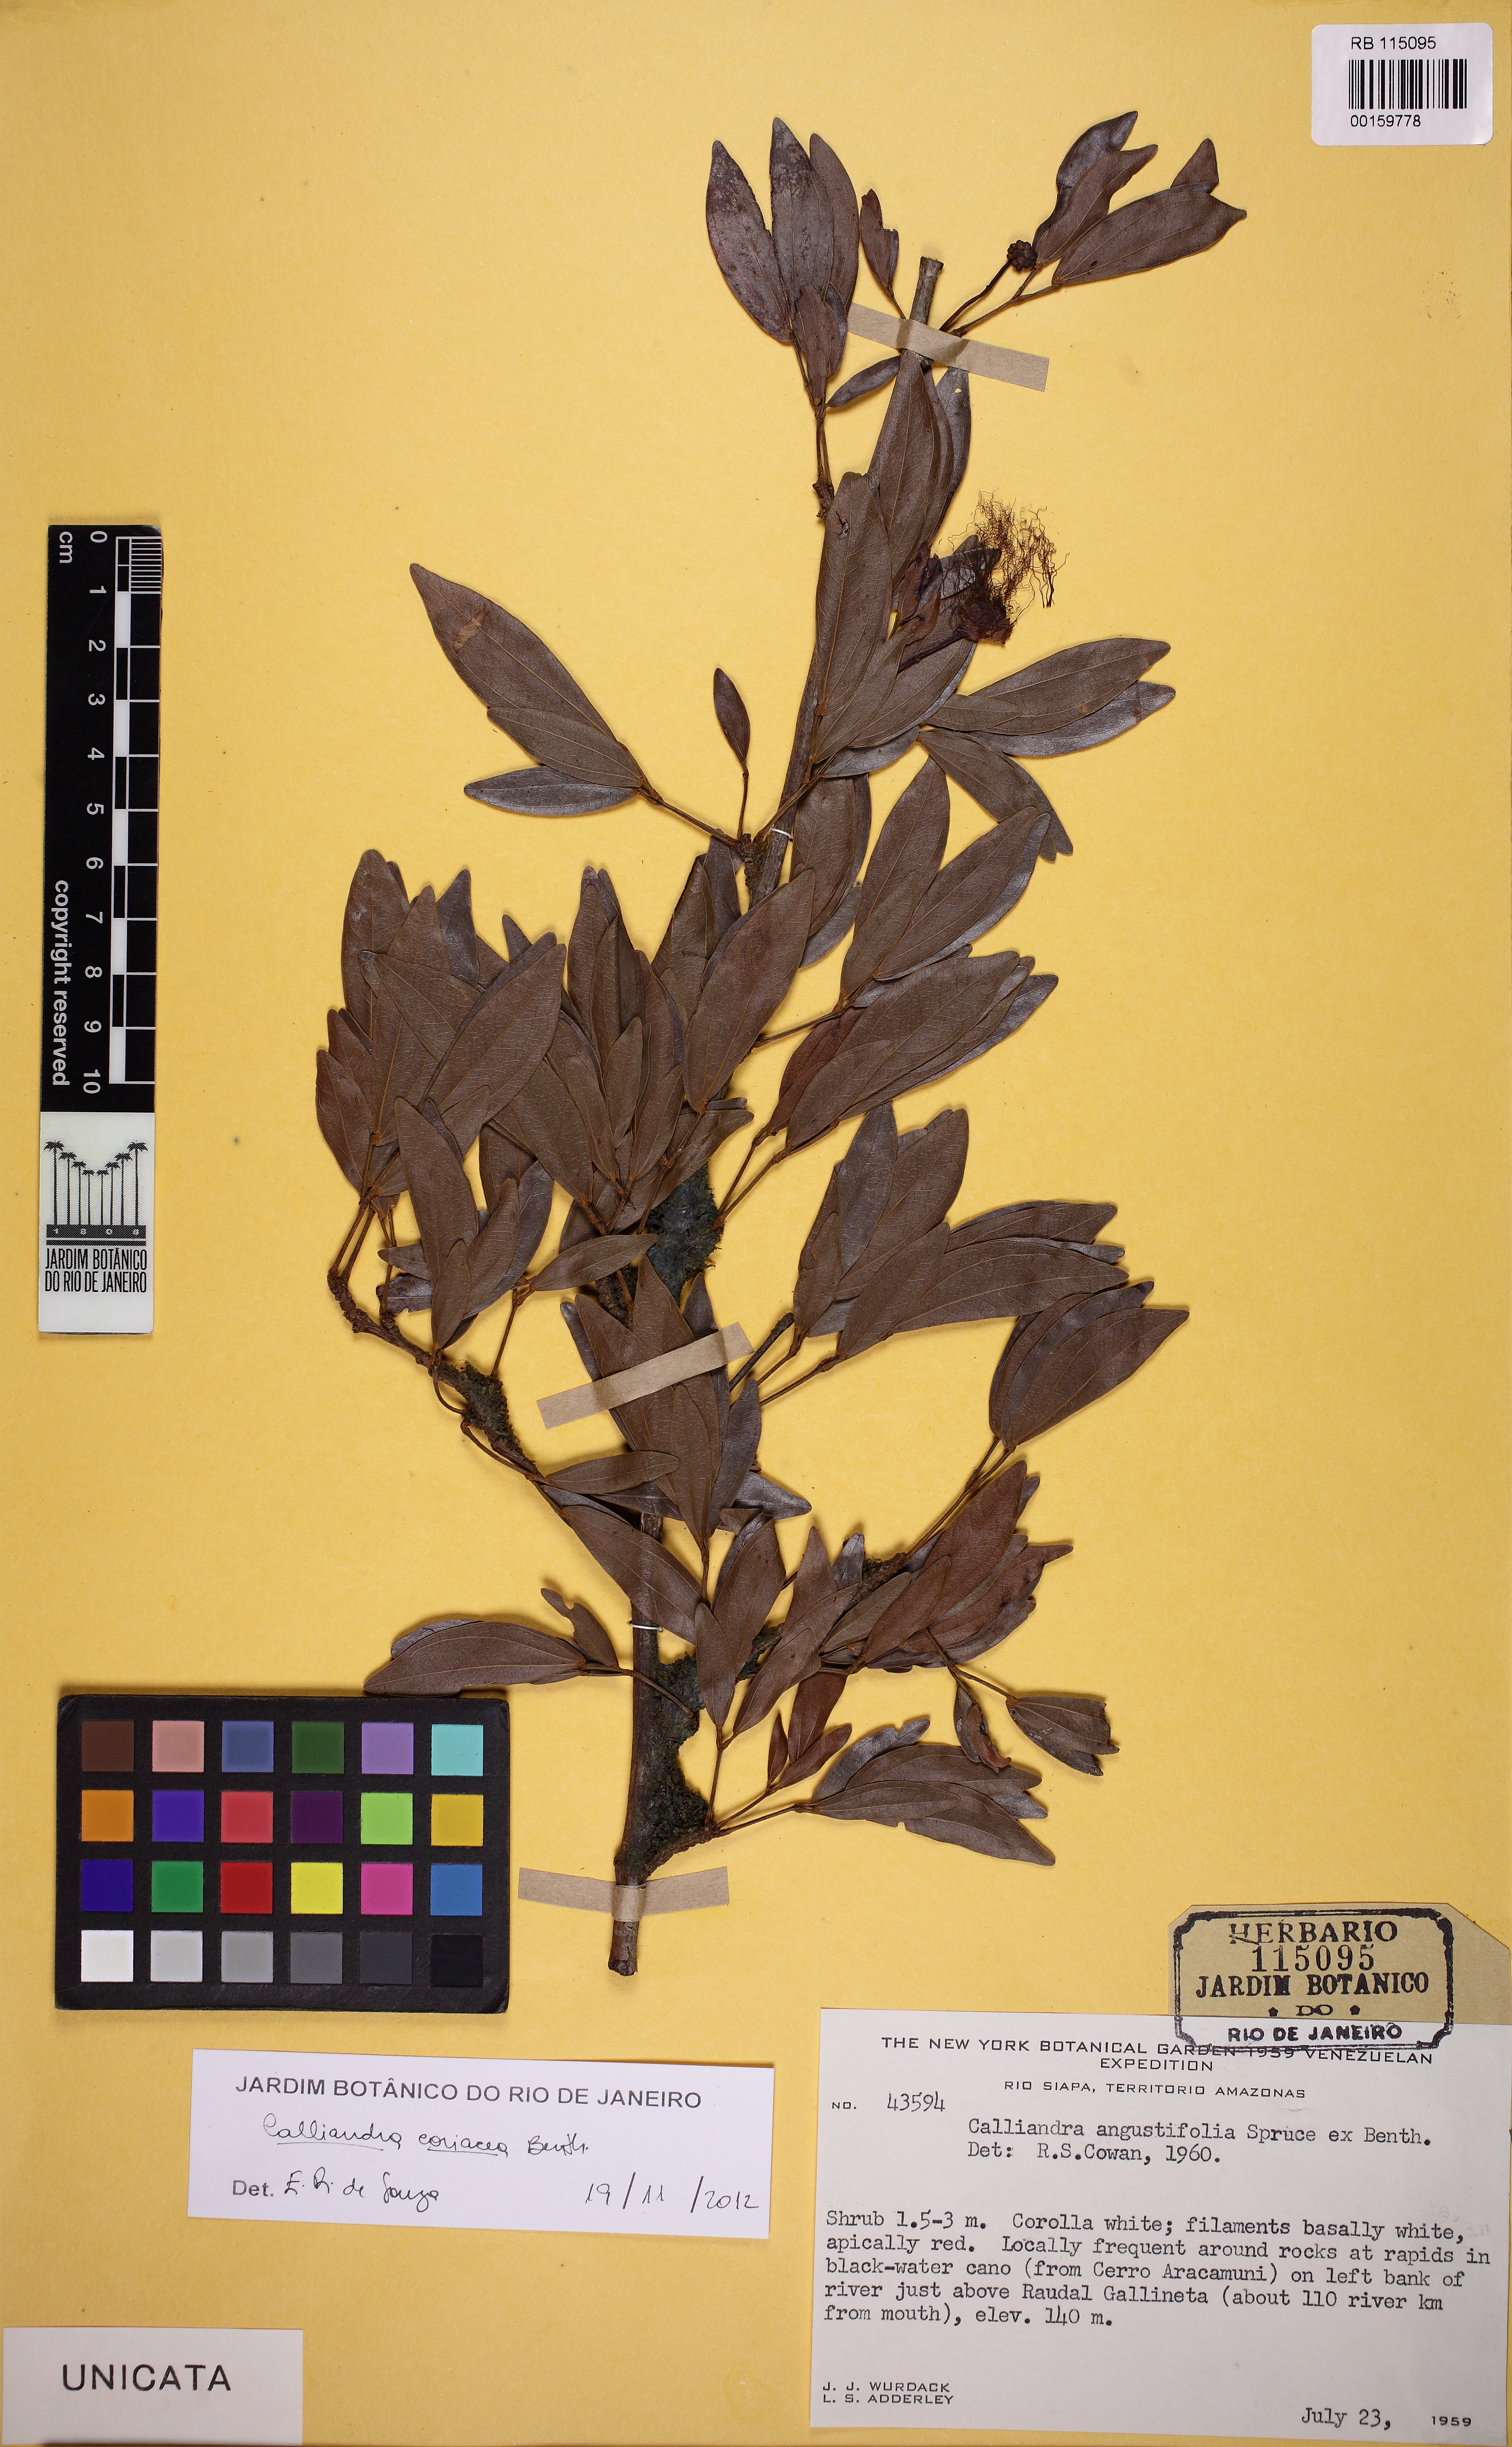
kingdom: Plantae
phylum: Tracheophyta
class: Magnoliopsida
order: Fabales
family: Fabaceae
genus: Calliandra
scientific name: Calliandra coriacea
